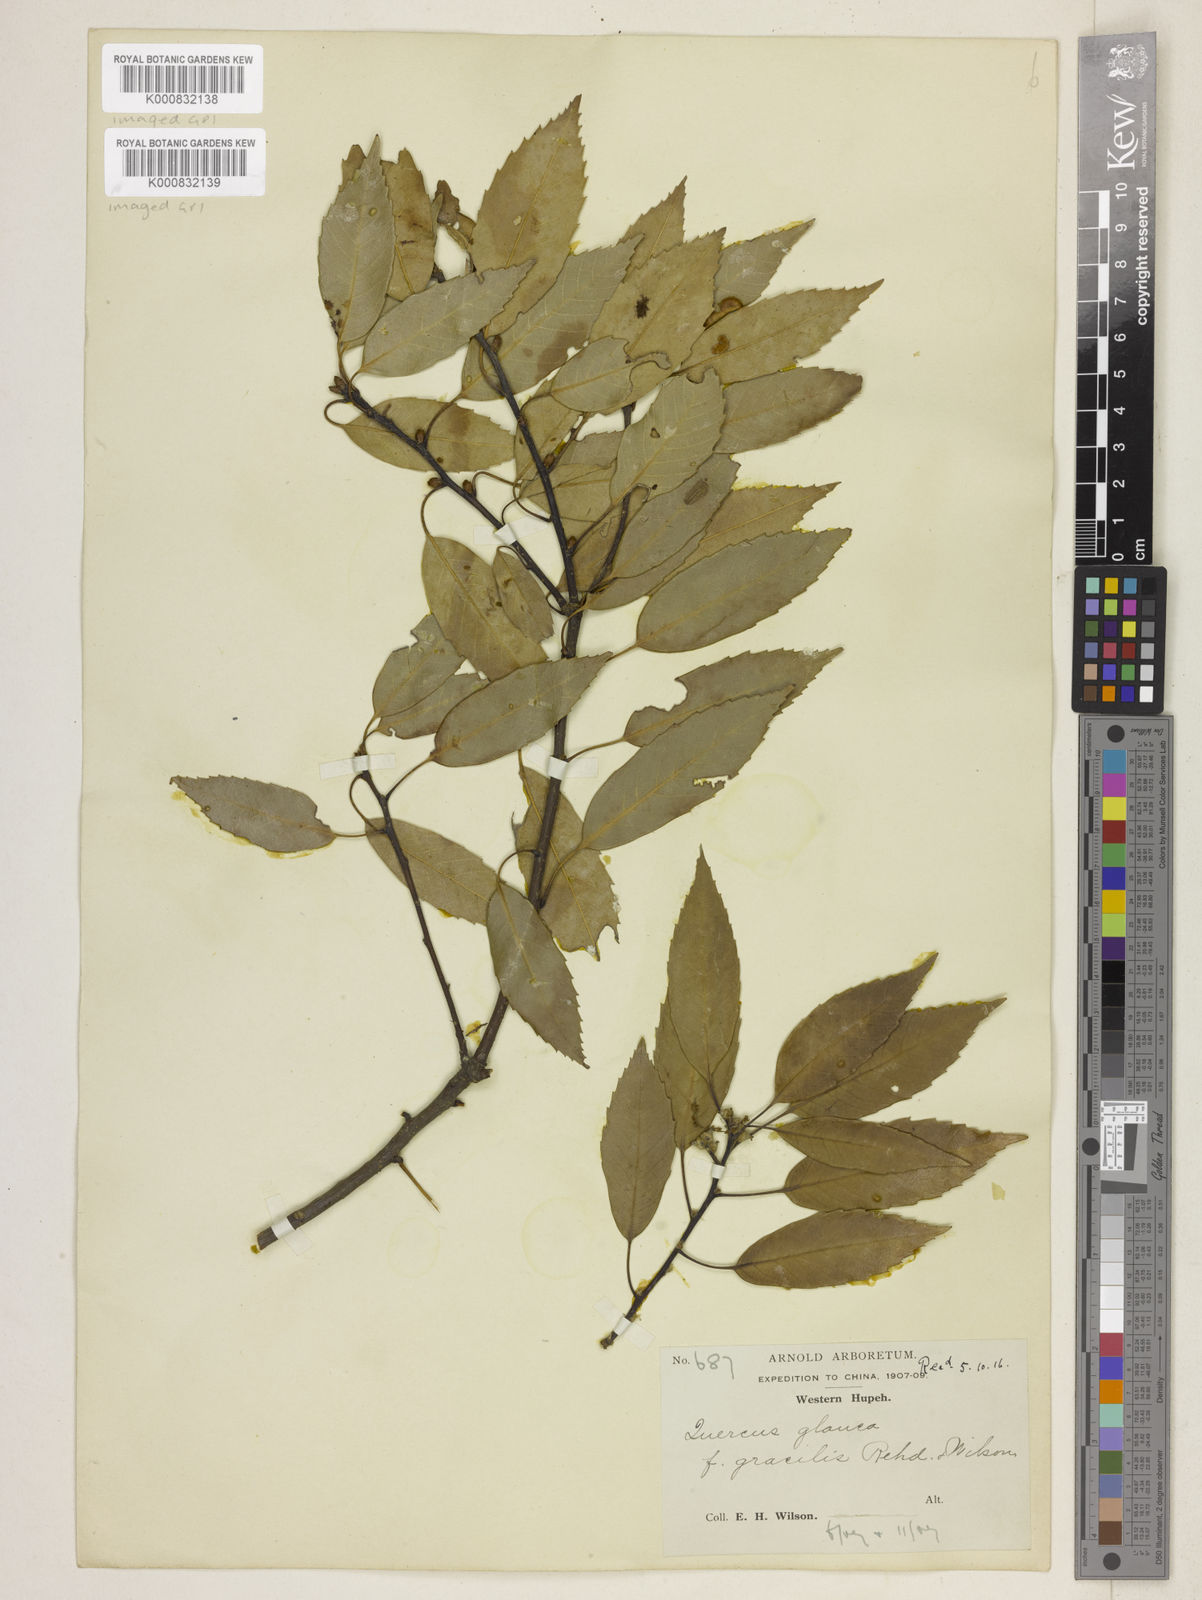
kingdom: Plantae
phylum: Tracheophyta
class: Magnoliopsida
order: Fagales
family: Fagaceae
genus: Quercus
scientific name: Quercus ciliaris
